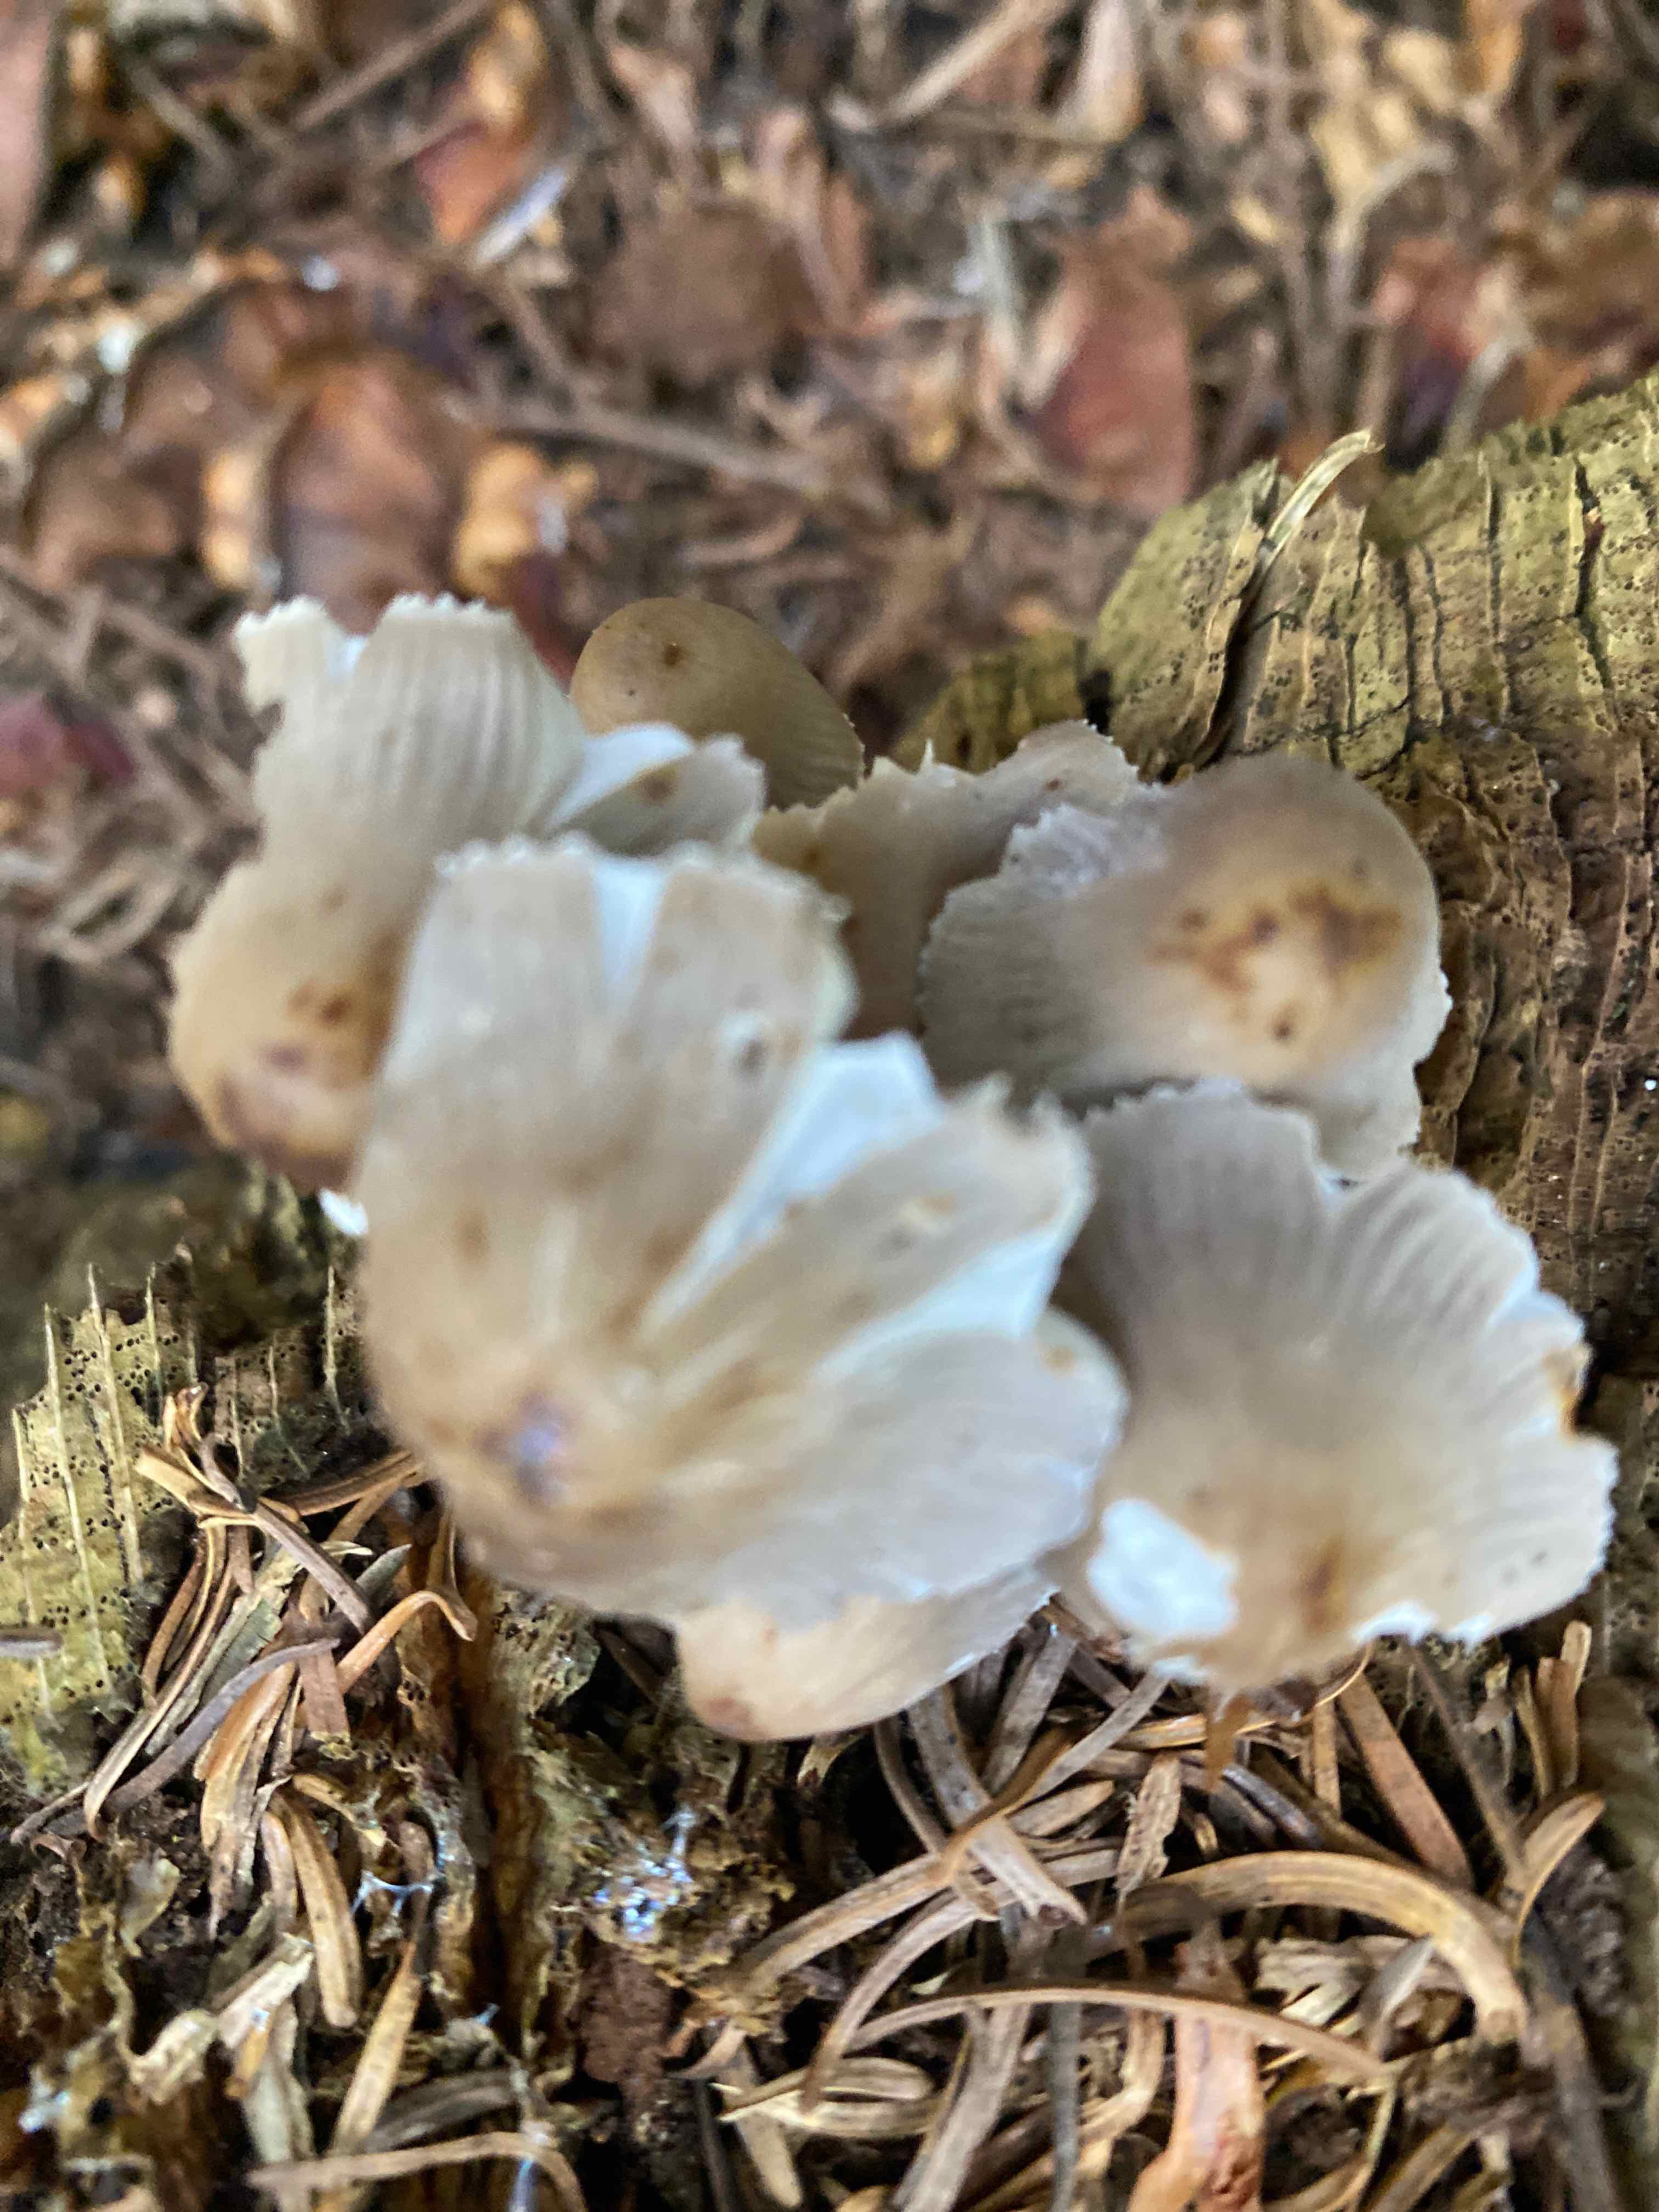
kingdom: Fungi
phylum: Basidiomycota
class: Agaricomycetes
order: Agaricales
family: Mycenaceae
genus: Mycena
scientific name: Mycena inclinata
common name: nikkende huesvamp
